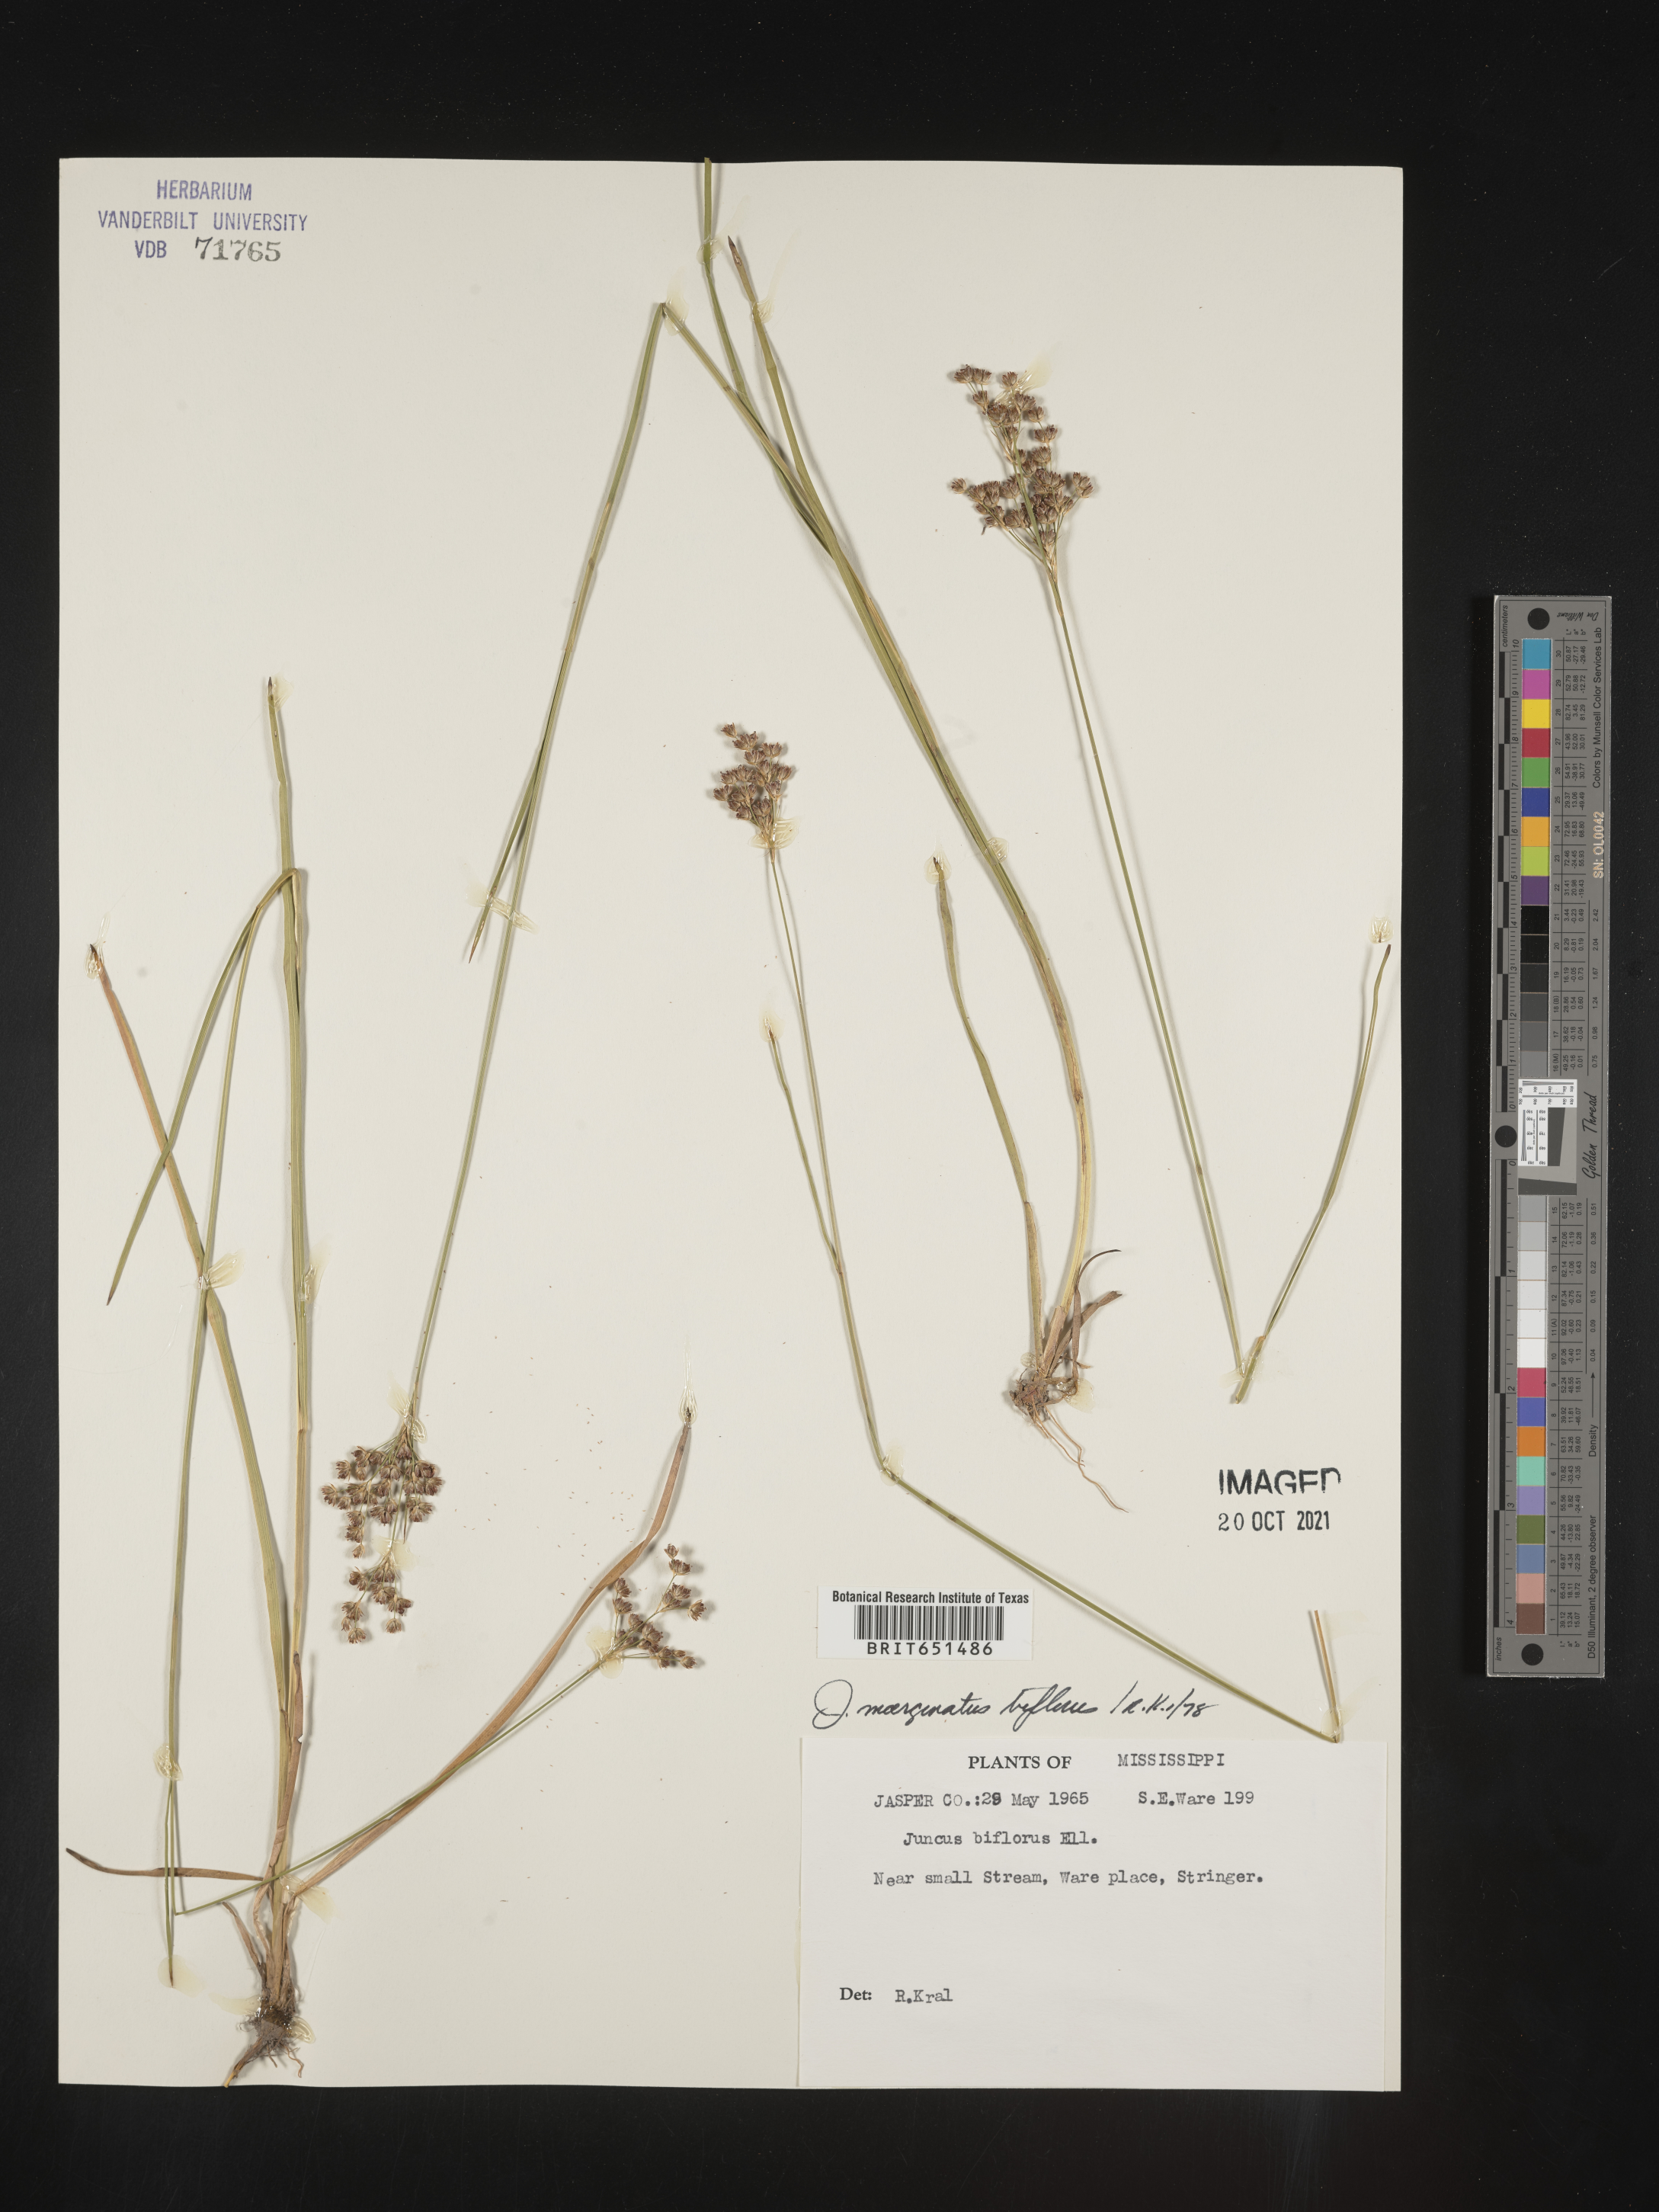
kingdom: Plantae
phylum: Tracheophyta
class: Liliopsida
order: Poales
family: Juncaceae
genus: Juncus
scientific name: Juncus biflorus
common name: Two-flowered rush
